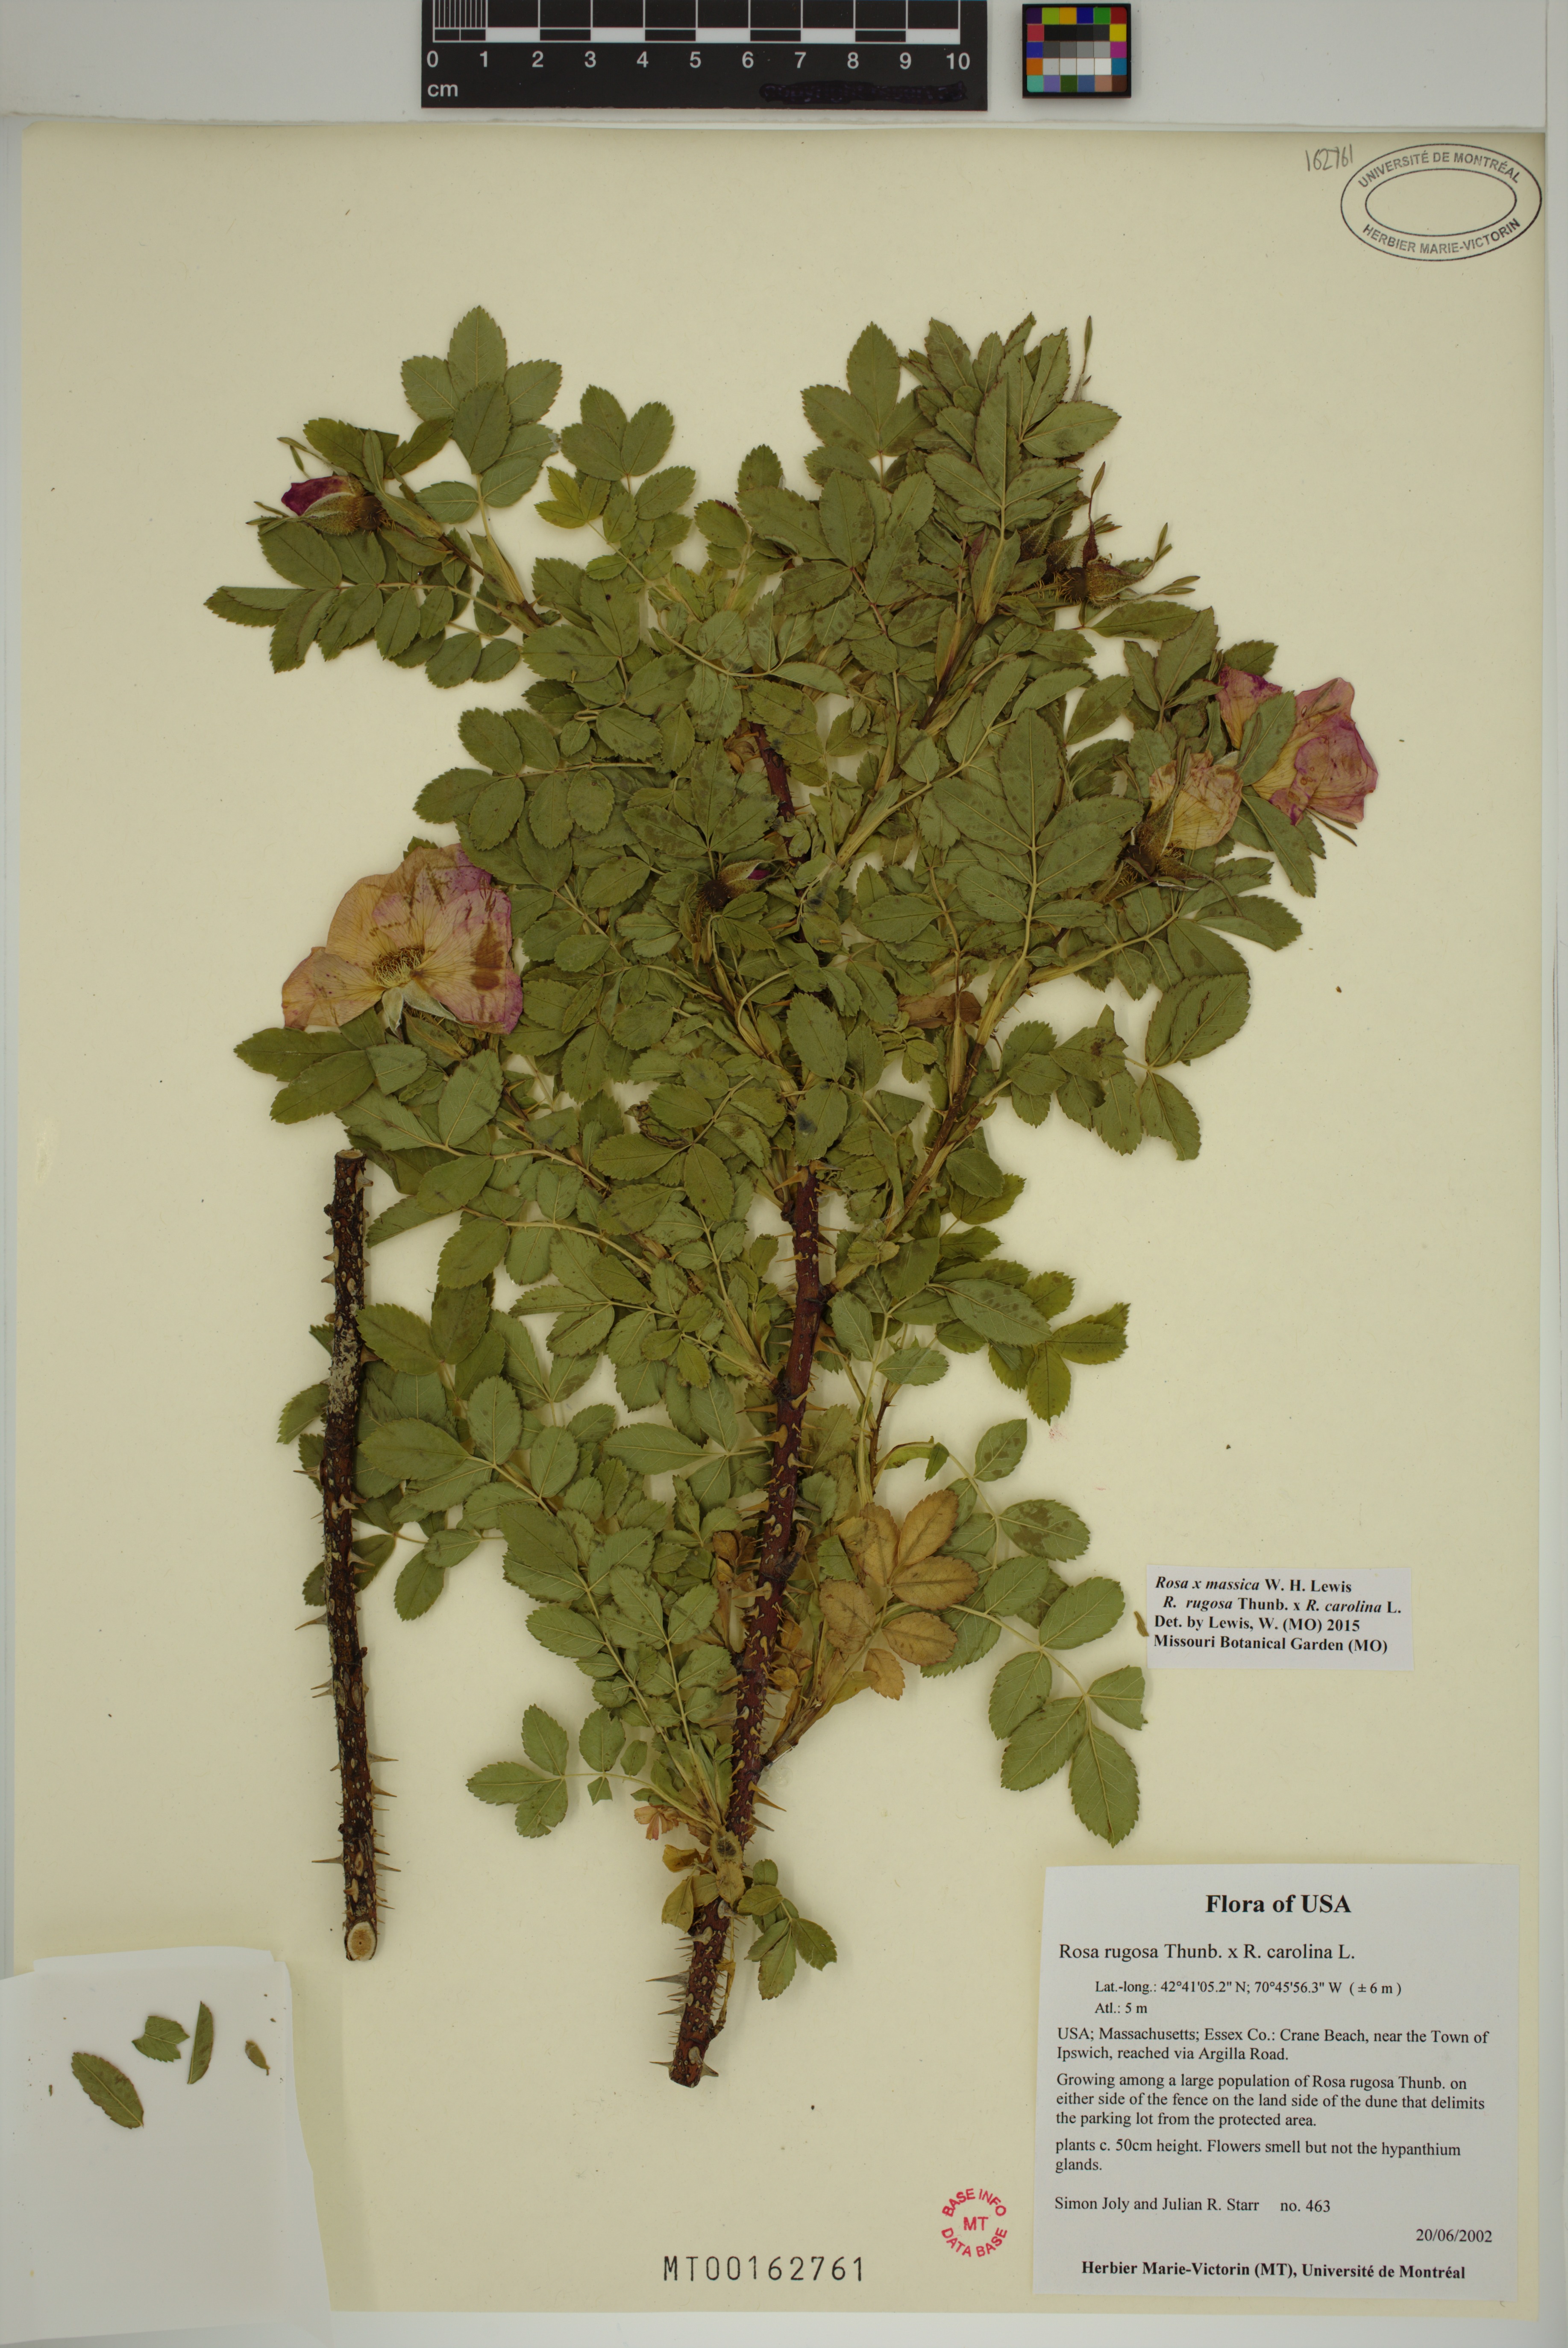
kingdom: Plantae
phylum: Tracheophyta
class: Magnoliopsida
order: Rosales
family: Rosaceae
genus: Rosa
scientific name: Rosa spaethiana
